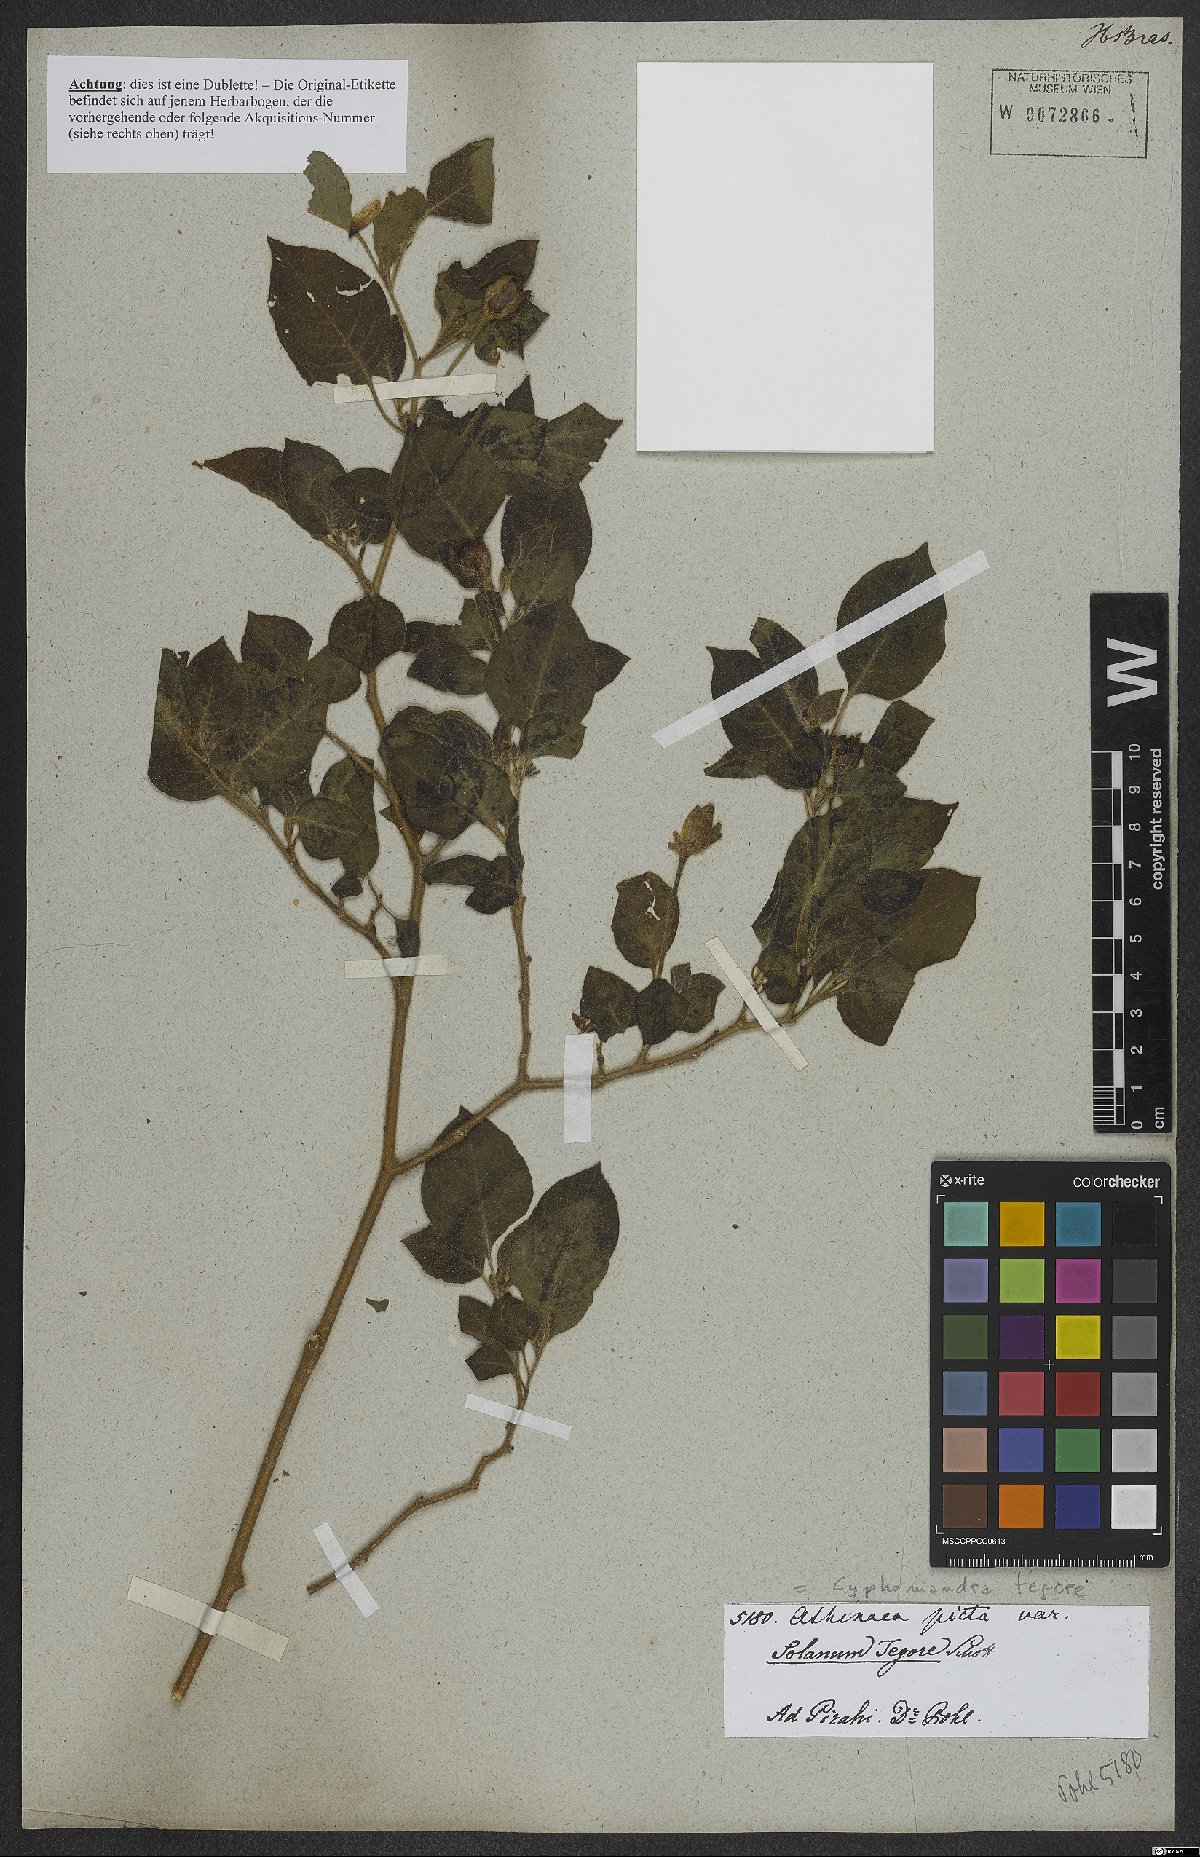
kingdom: Plantae
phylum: Tracheophyta
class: Magnoliopsida
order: Solanales
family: Solanaceae
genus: Solanum
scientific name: Solanum tegore
